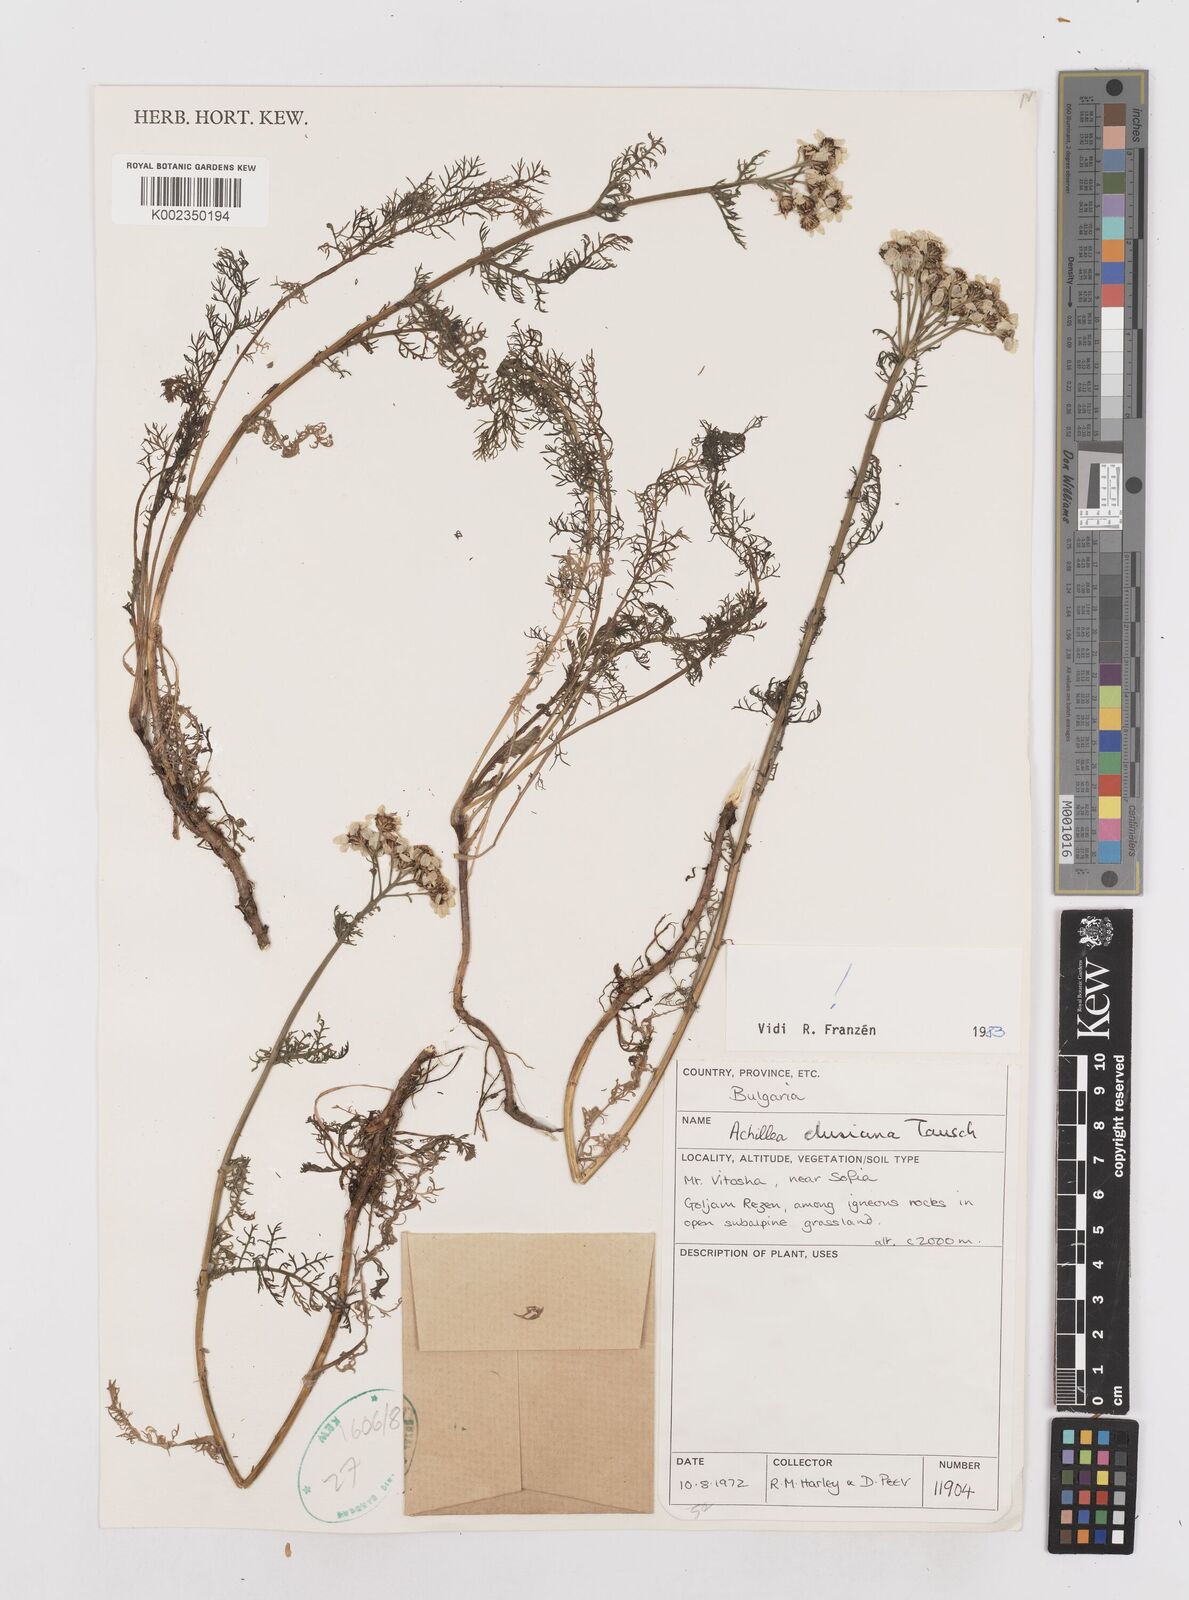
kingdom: Plantae
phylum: Tracheophyta
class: Magnoliopsida
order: Asterales
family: Asteraceae
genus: Achillea
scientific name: Achillea clusiana
